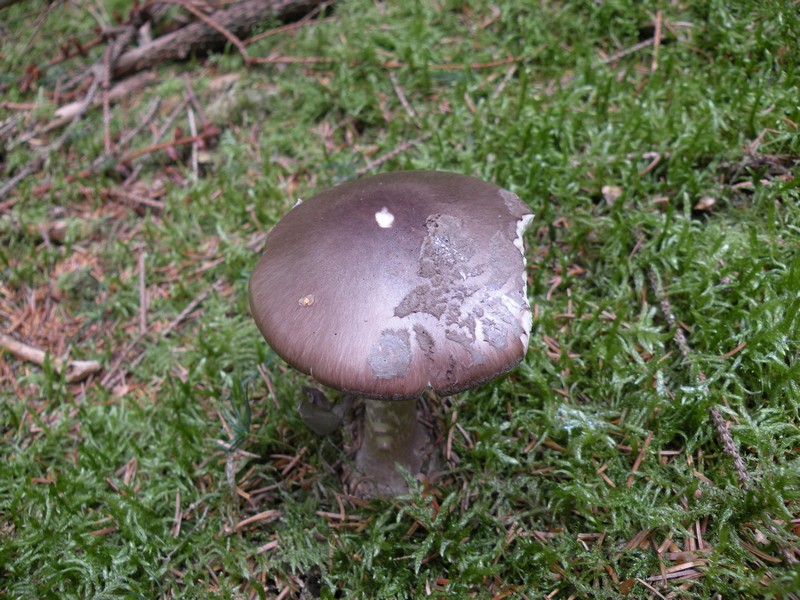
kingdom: Fungi
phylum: Basidiomycota
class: Agaricomycetes
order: Agaricales
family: Amanitaceae
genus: Amanita
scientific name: Amanita porphyria
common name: porfyr-fluesvamp
